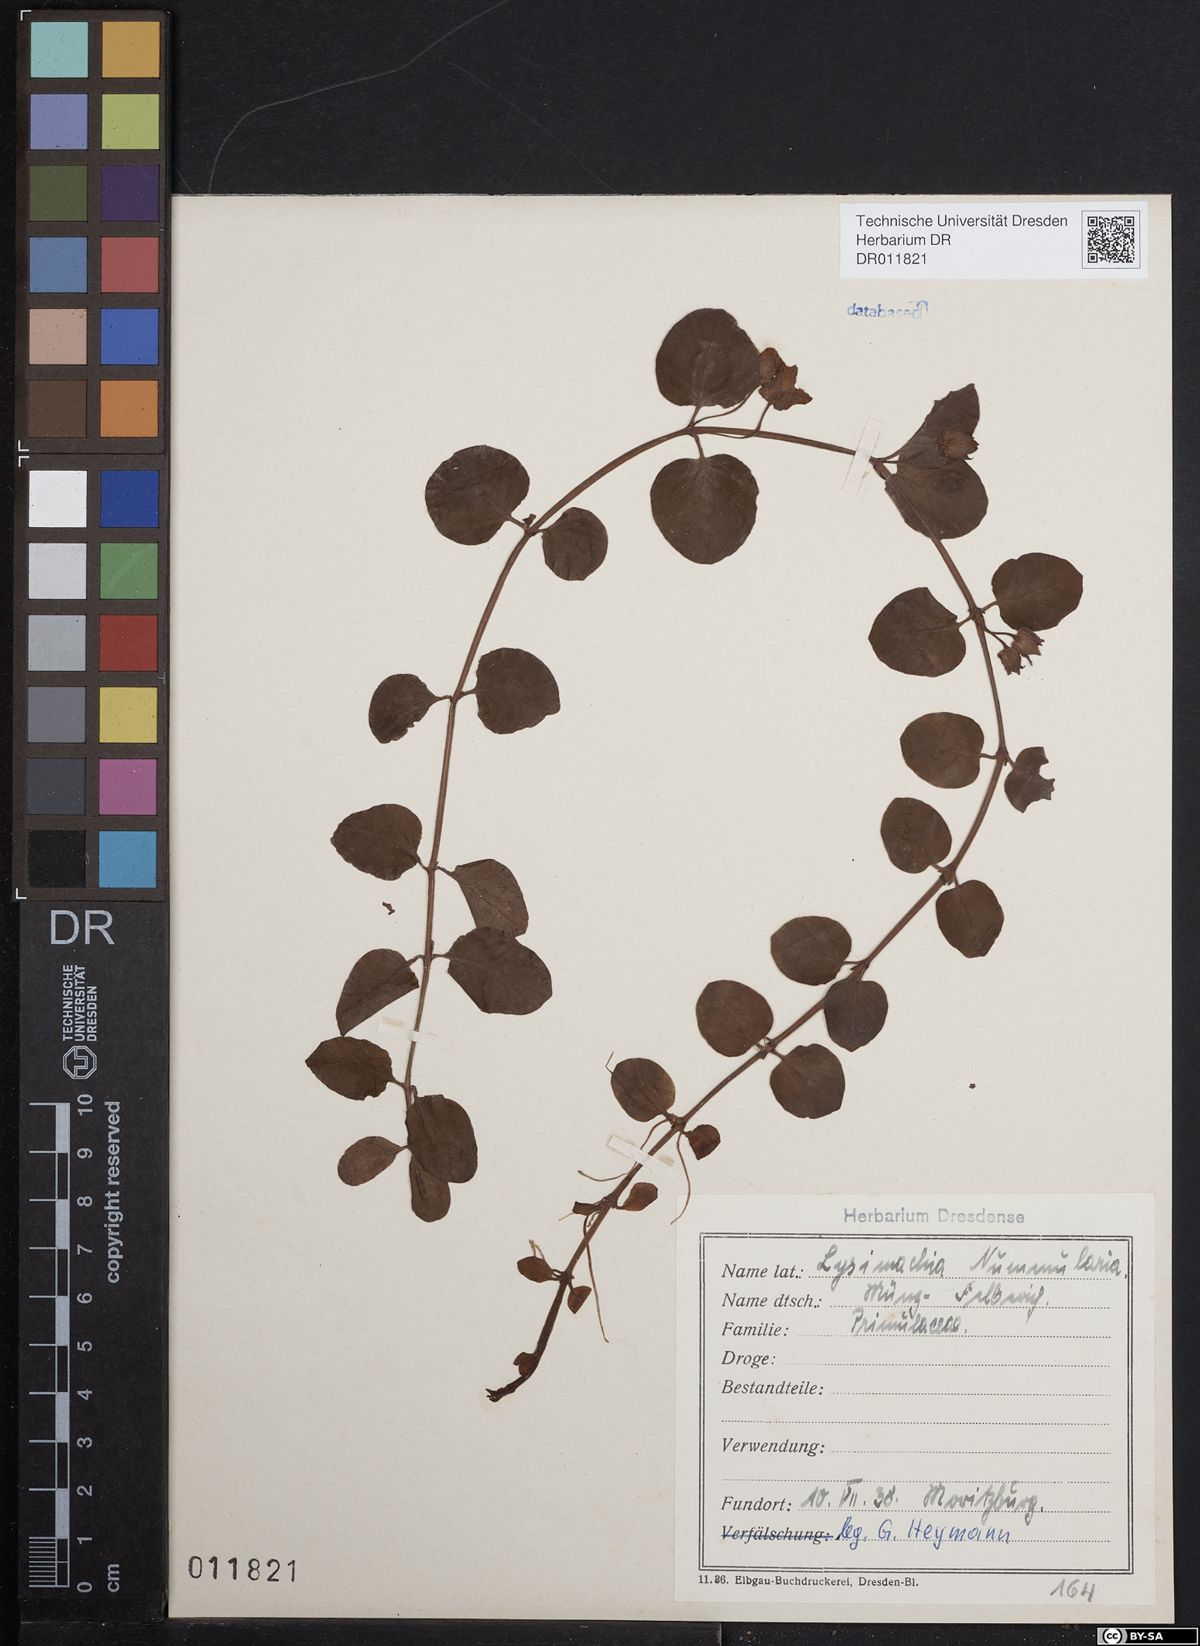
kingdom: Plantae
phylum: Tracheophyta
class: Magnoliopsida
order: Ericales
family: Primulaceae
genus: Lysimachia
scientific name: Lysimachia nummularia
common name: Moneywort
